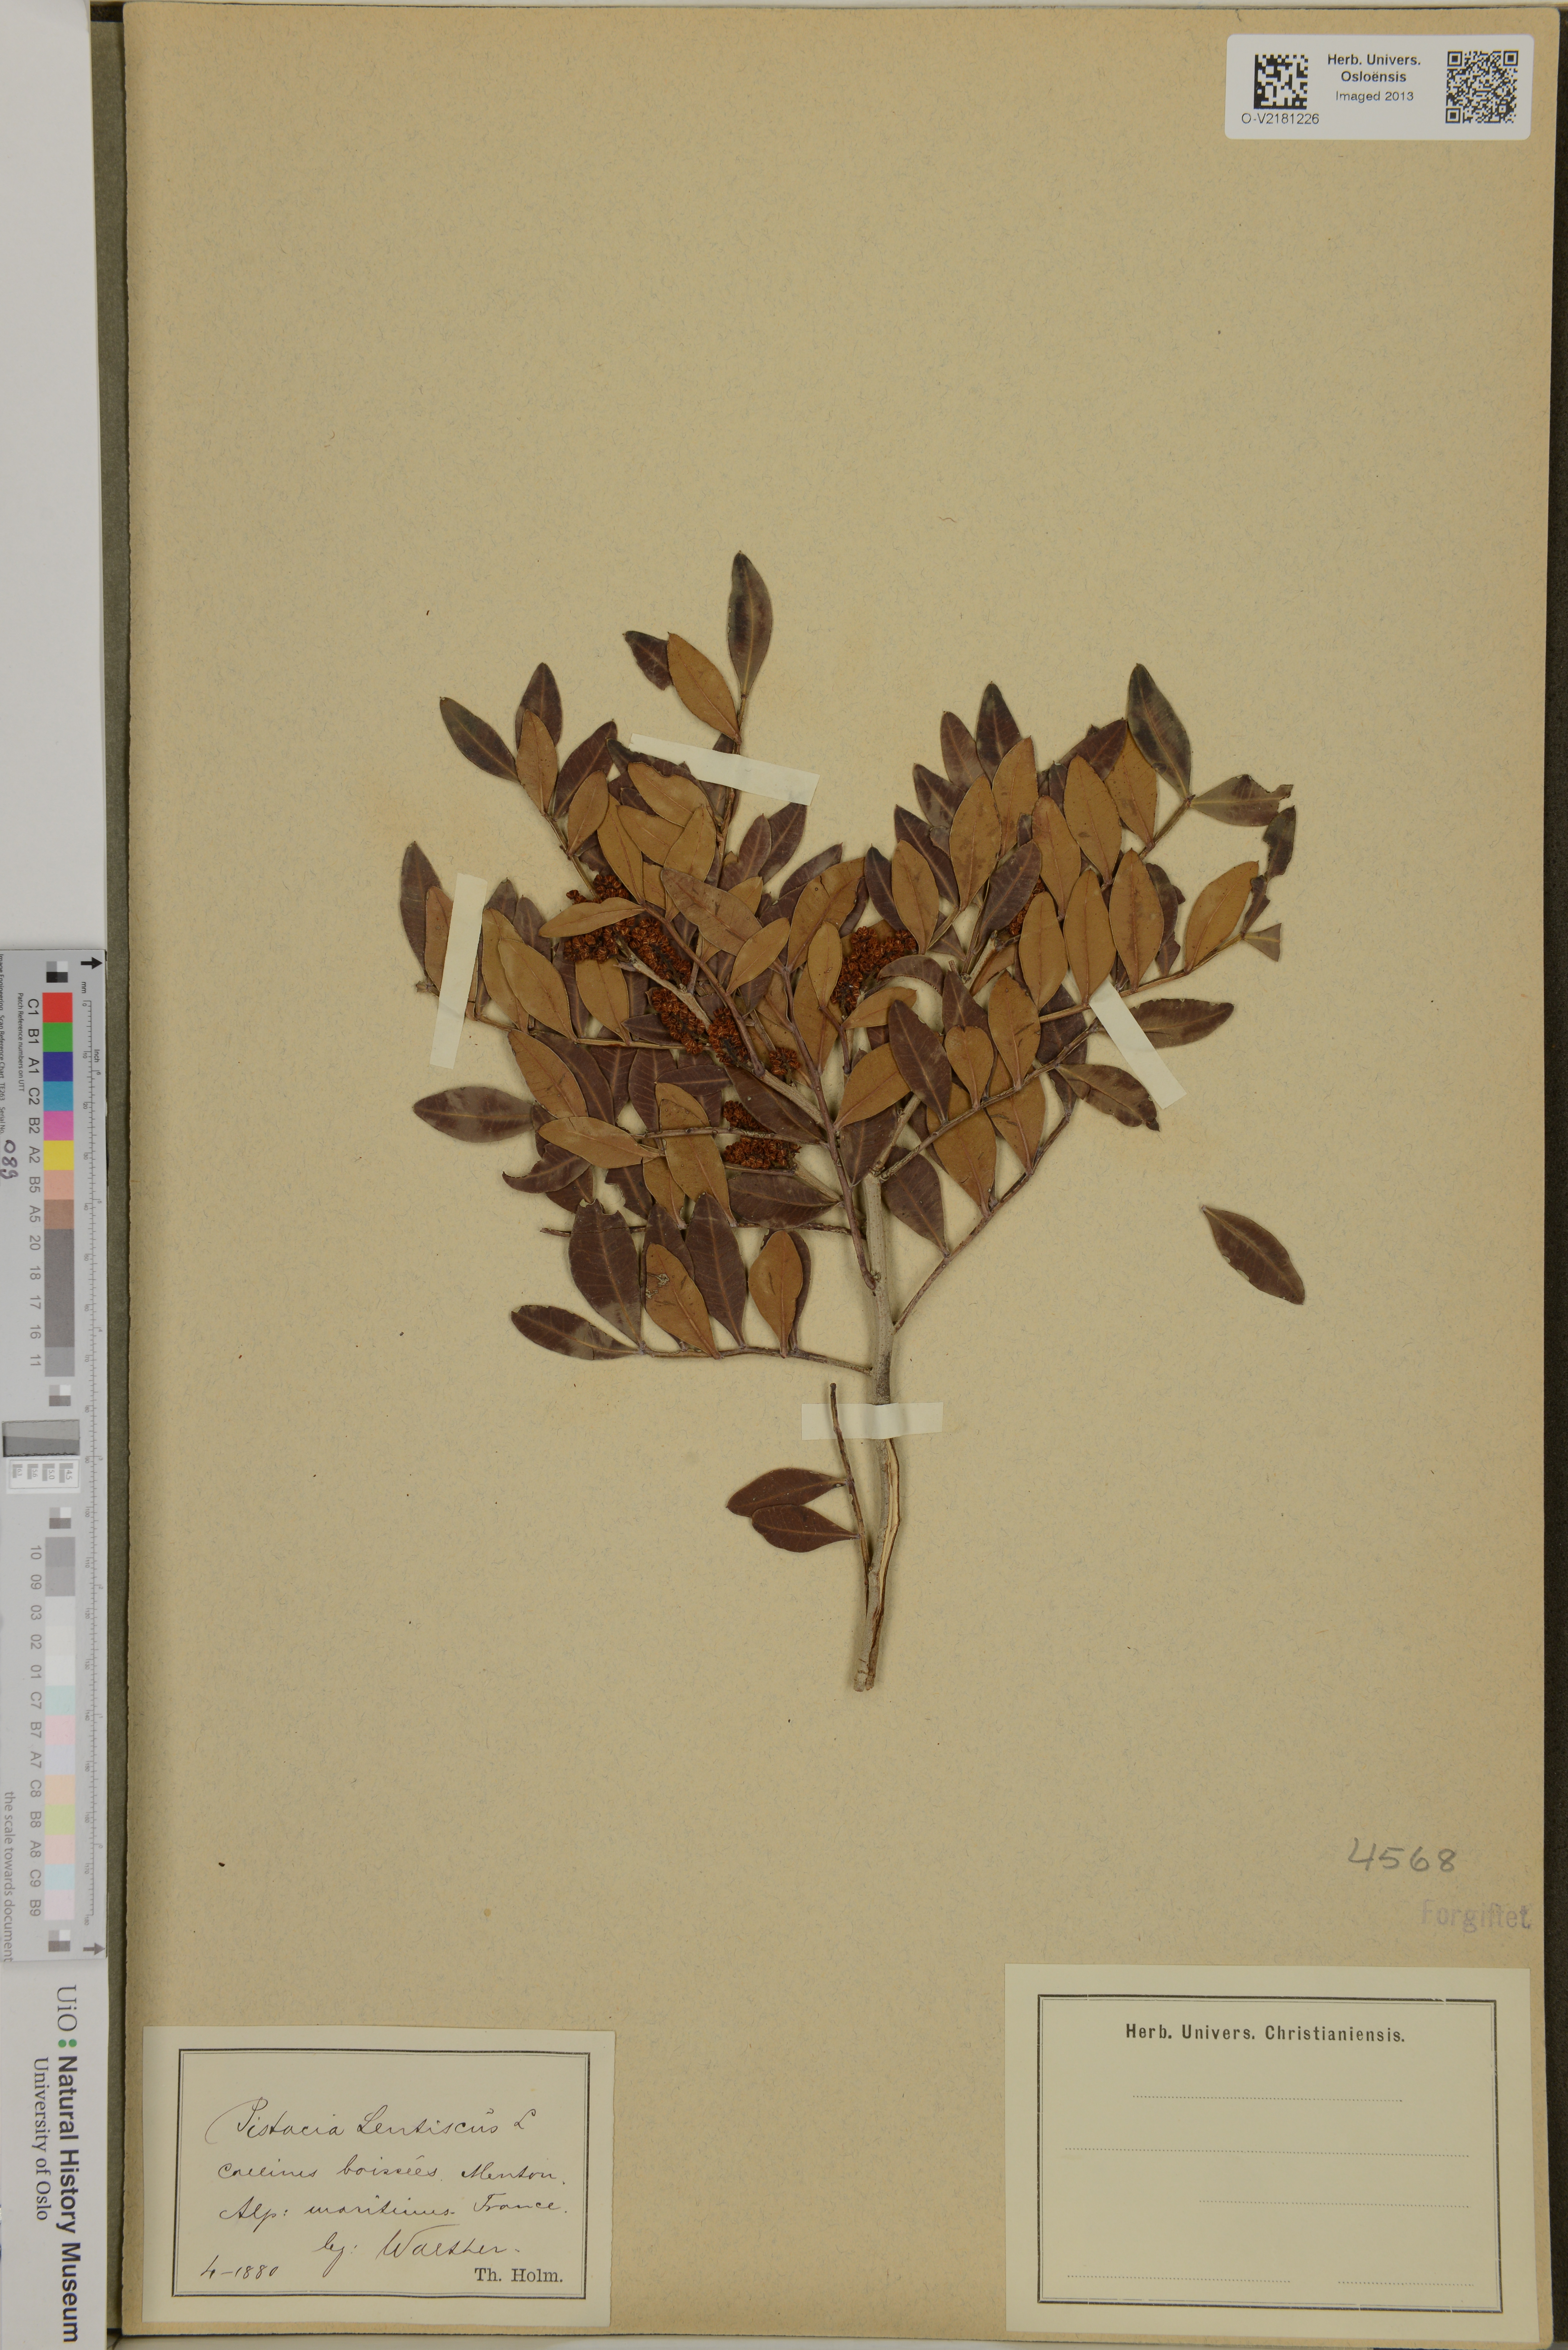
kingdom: Plantae
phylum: Tracheophyta
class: Magnoliopsida
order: Sapindales
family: Anacardiaceae
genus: Pistacia
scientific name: Pistacia lentiscus
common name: Lentisk
